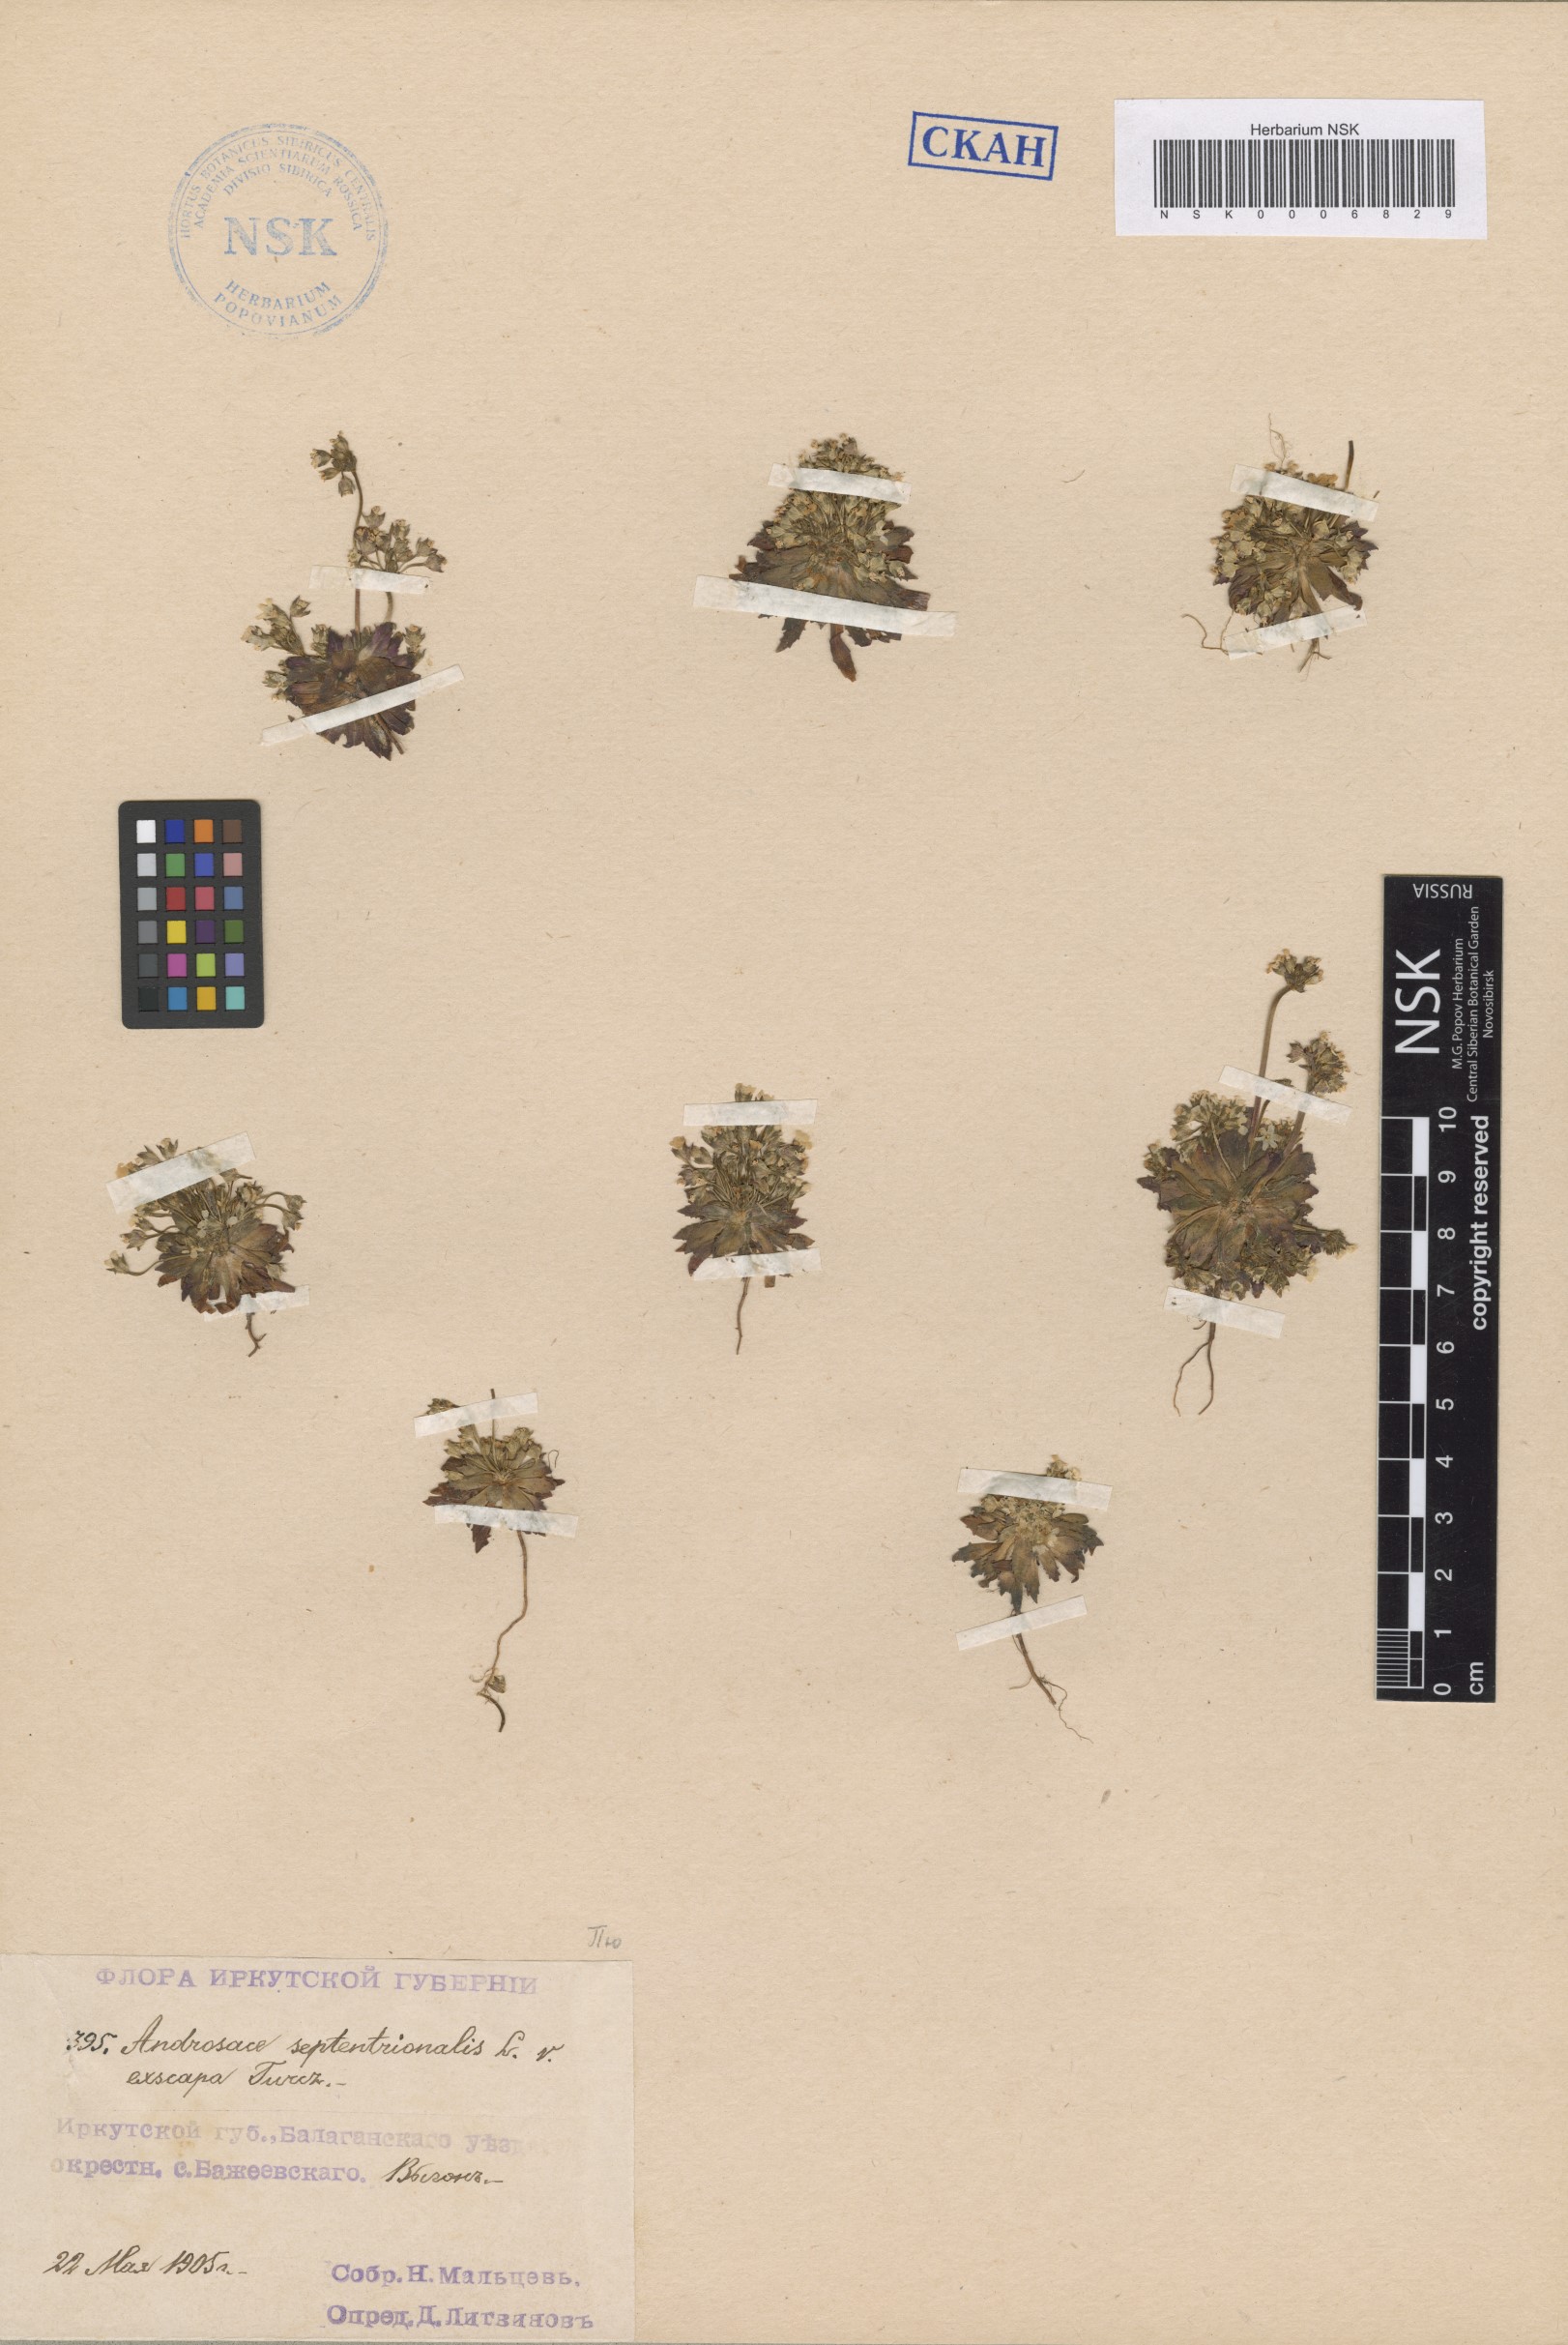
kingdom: Plantae
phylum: Tracheophyta
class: Magnoliopsida
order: Ericales
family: Primulaceae
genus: Androsace
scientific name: Androsace septentrionalis
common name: Hairy northern fairy-candelabra
